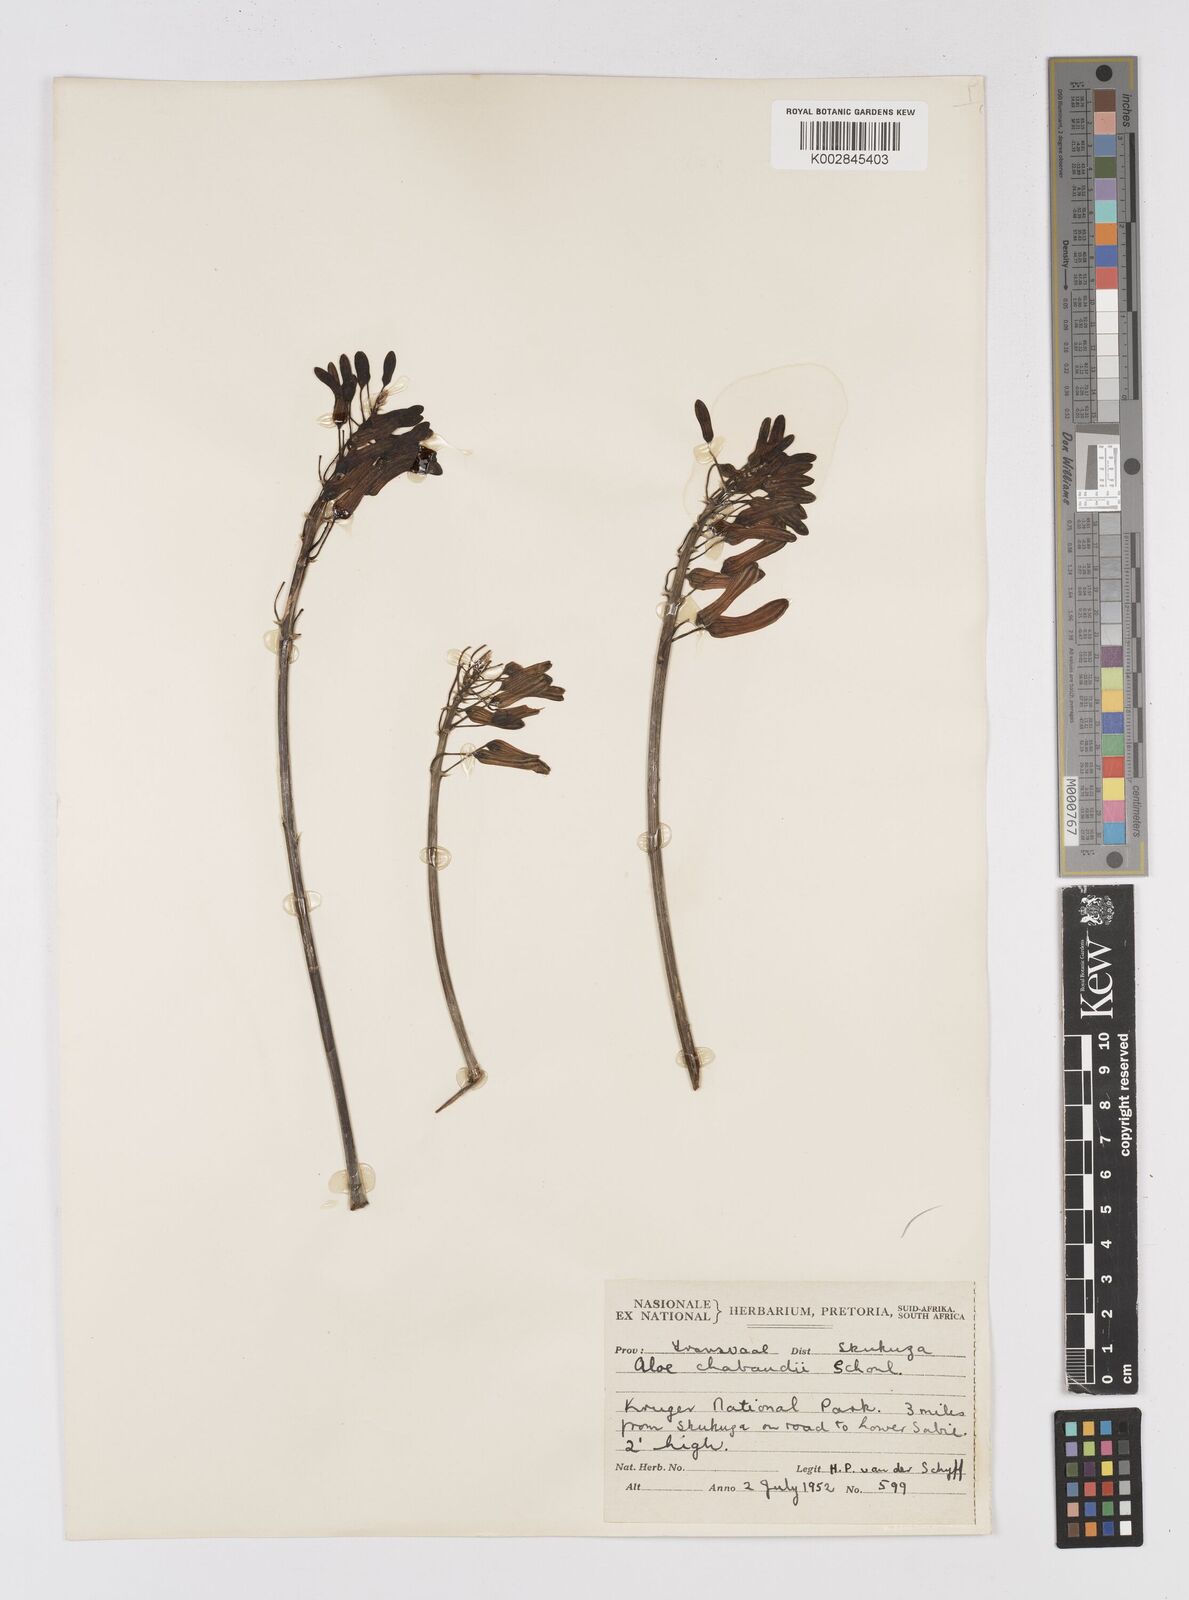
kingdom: Plantae
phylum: Tracheophyta
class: Liliopsida
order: Asparagales
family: Asphodelaceae
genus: Aloe
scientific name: Aloe chabaudii
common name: Chabaud's aloe
